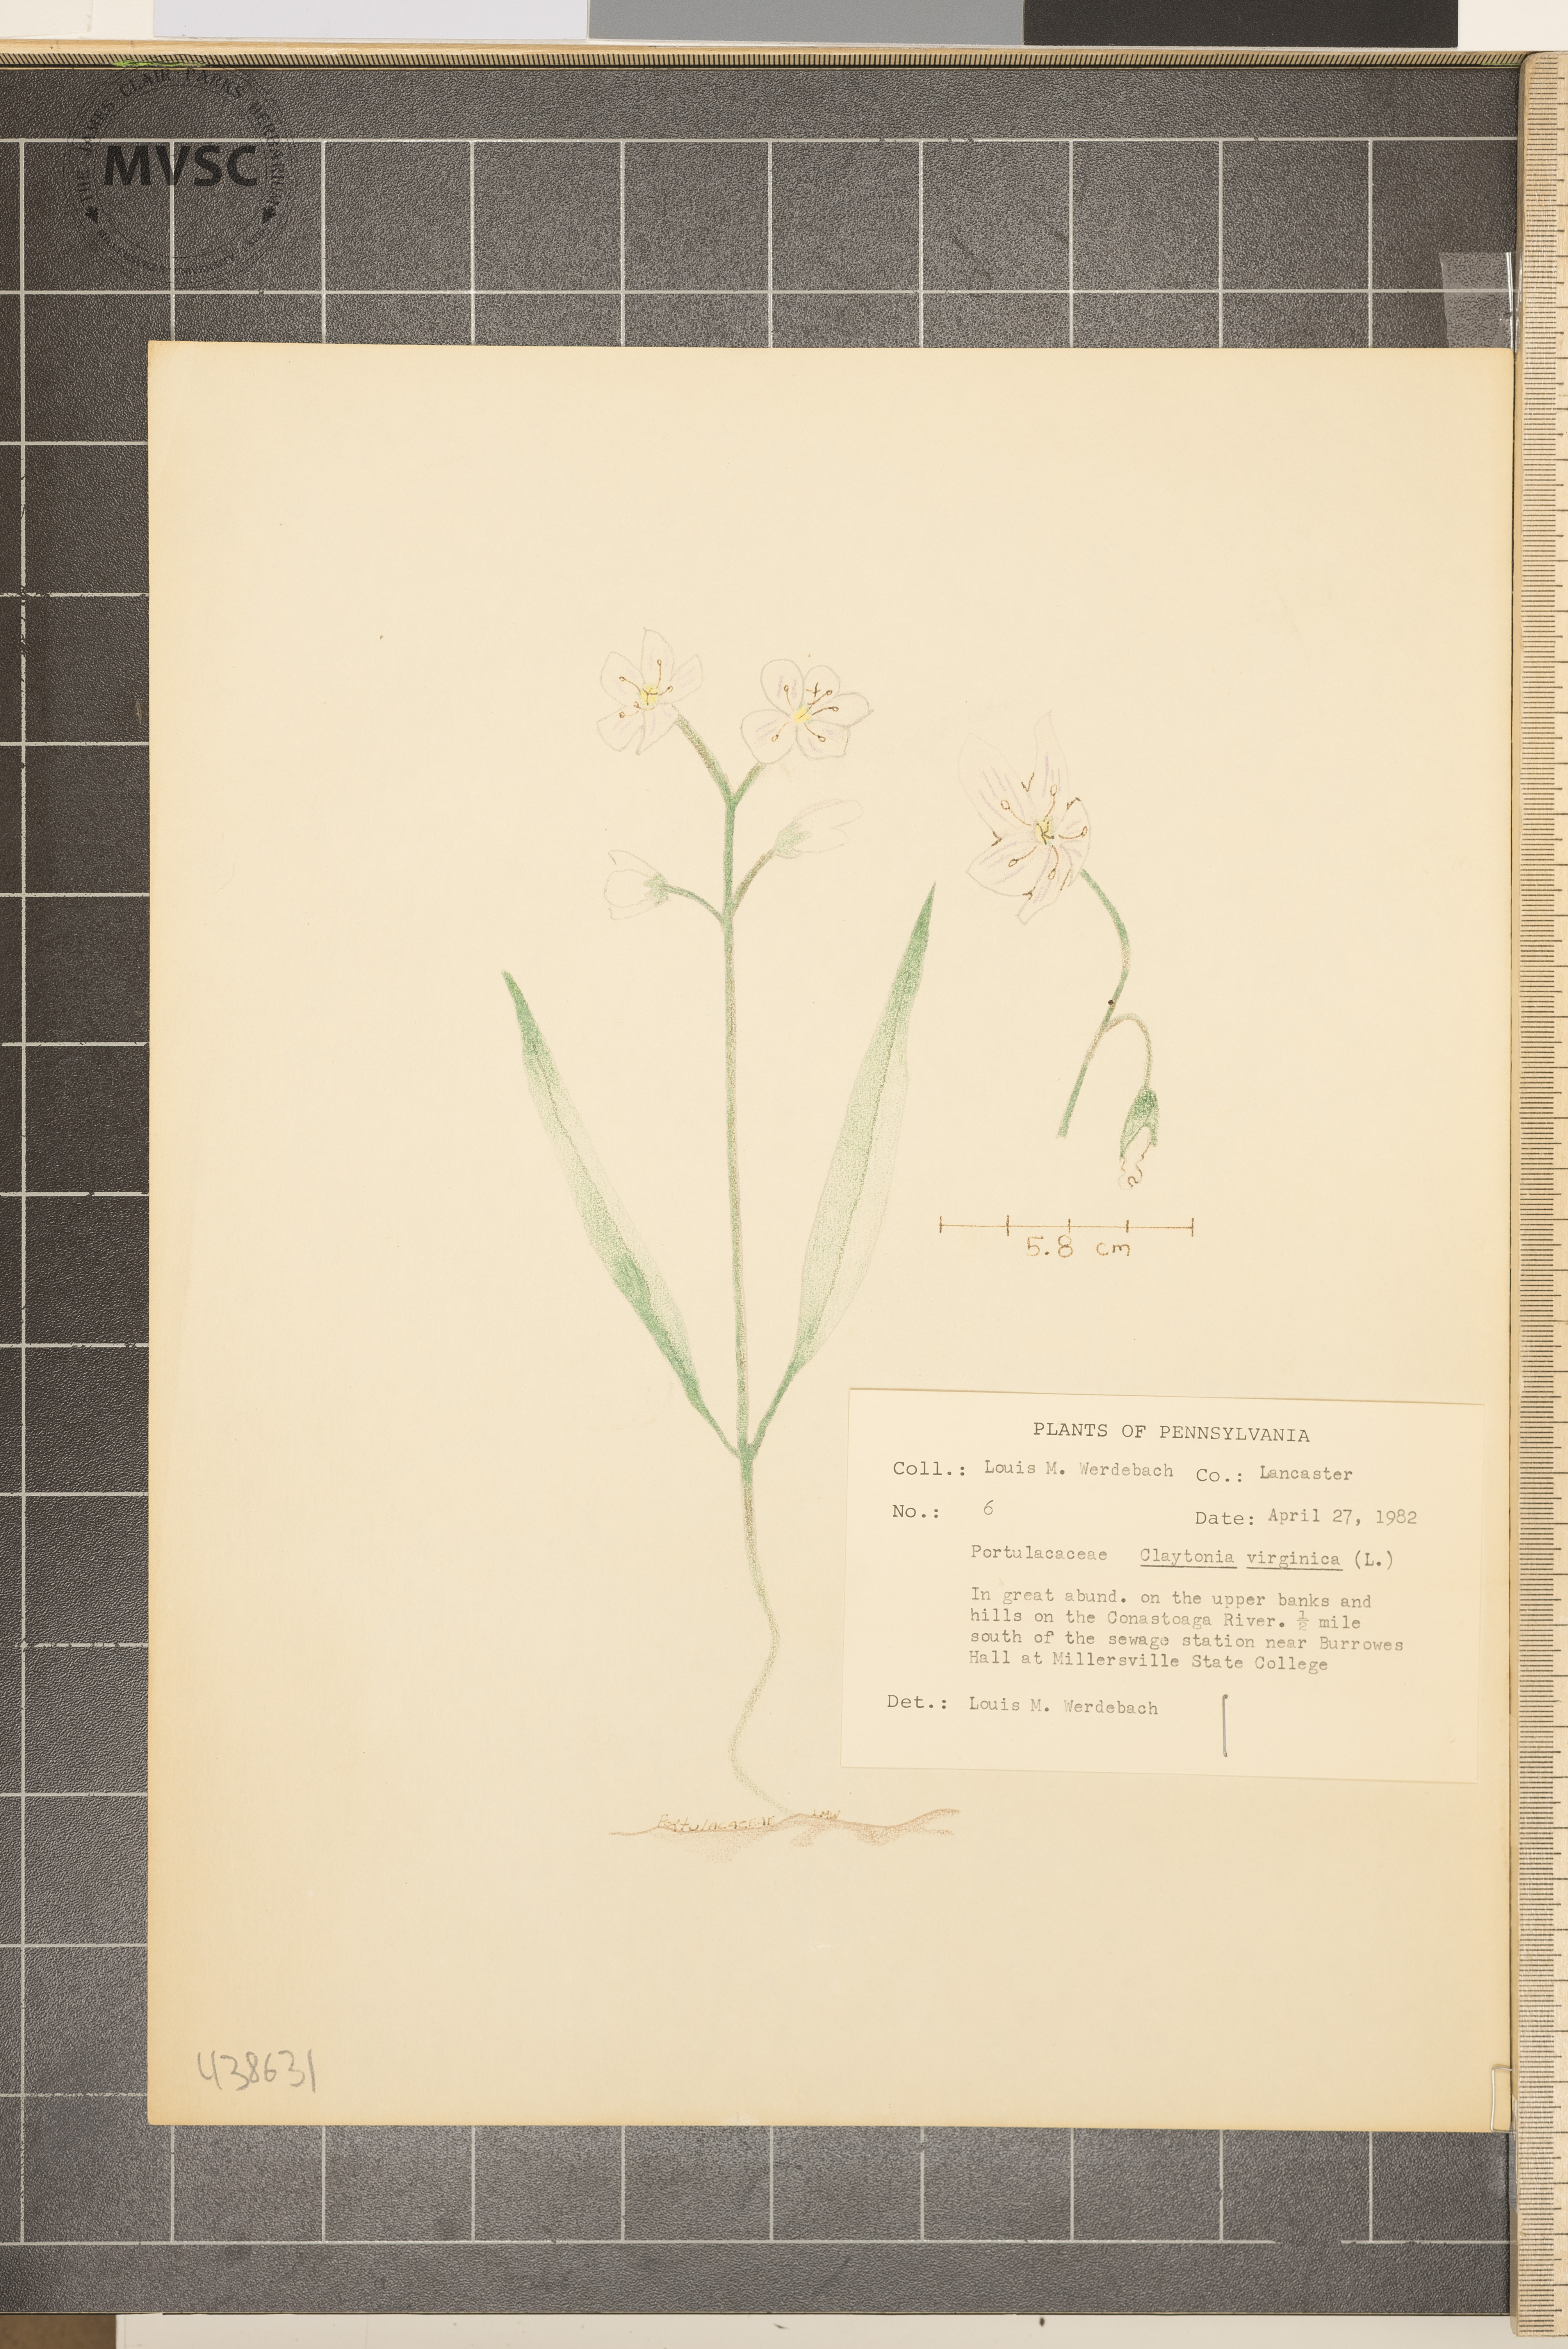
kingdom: Plantae
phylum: Tracheophyta
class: Magnoliopsida
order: Caryophyllales
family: Montiaceae
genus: Claytonia
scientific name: Claytonia virginica
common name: Virginia springbeauty
